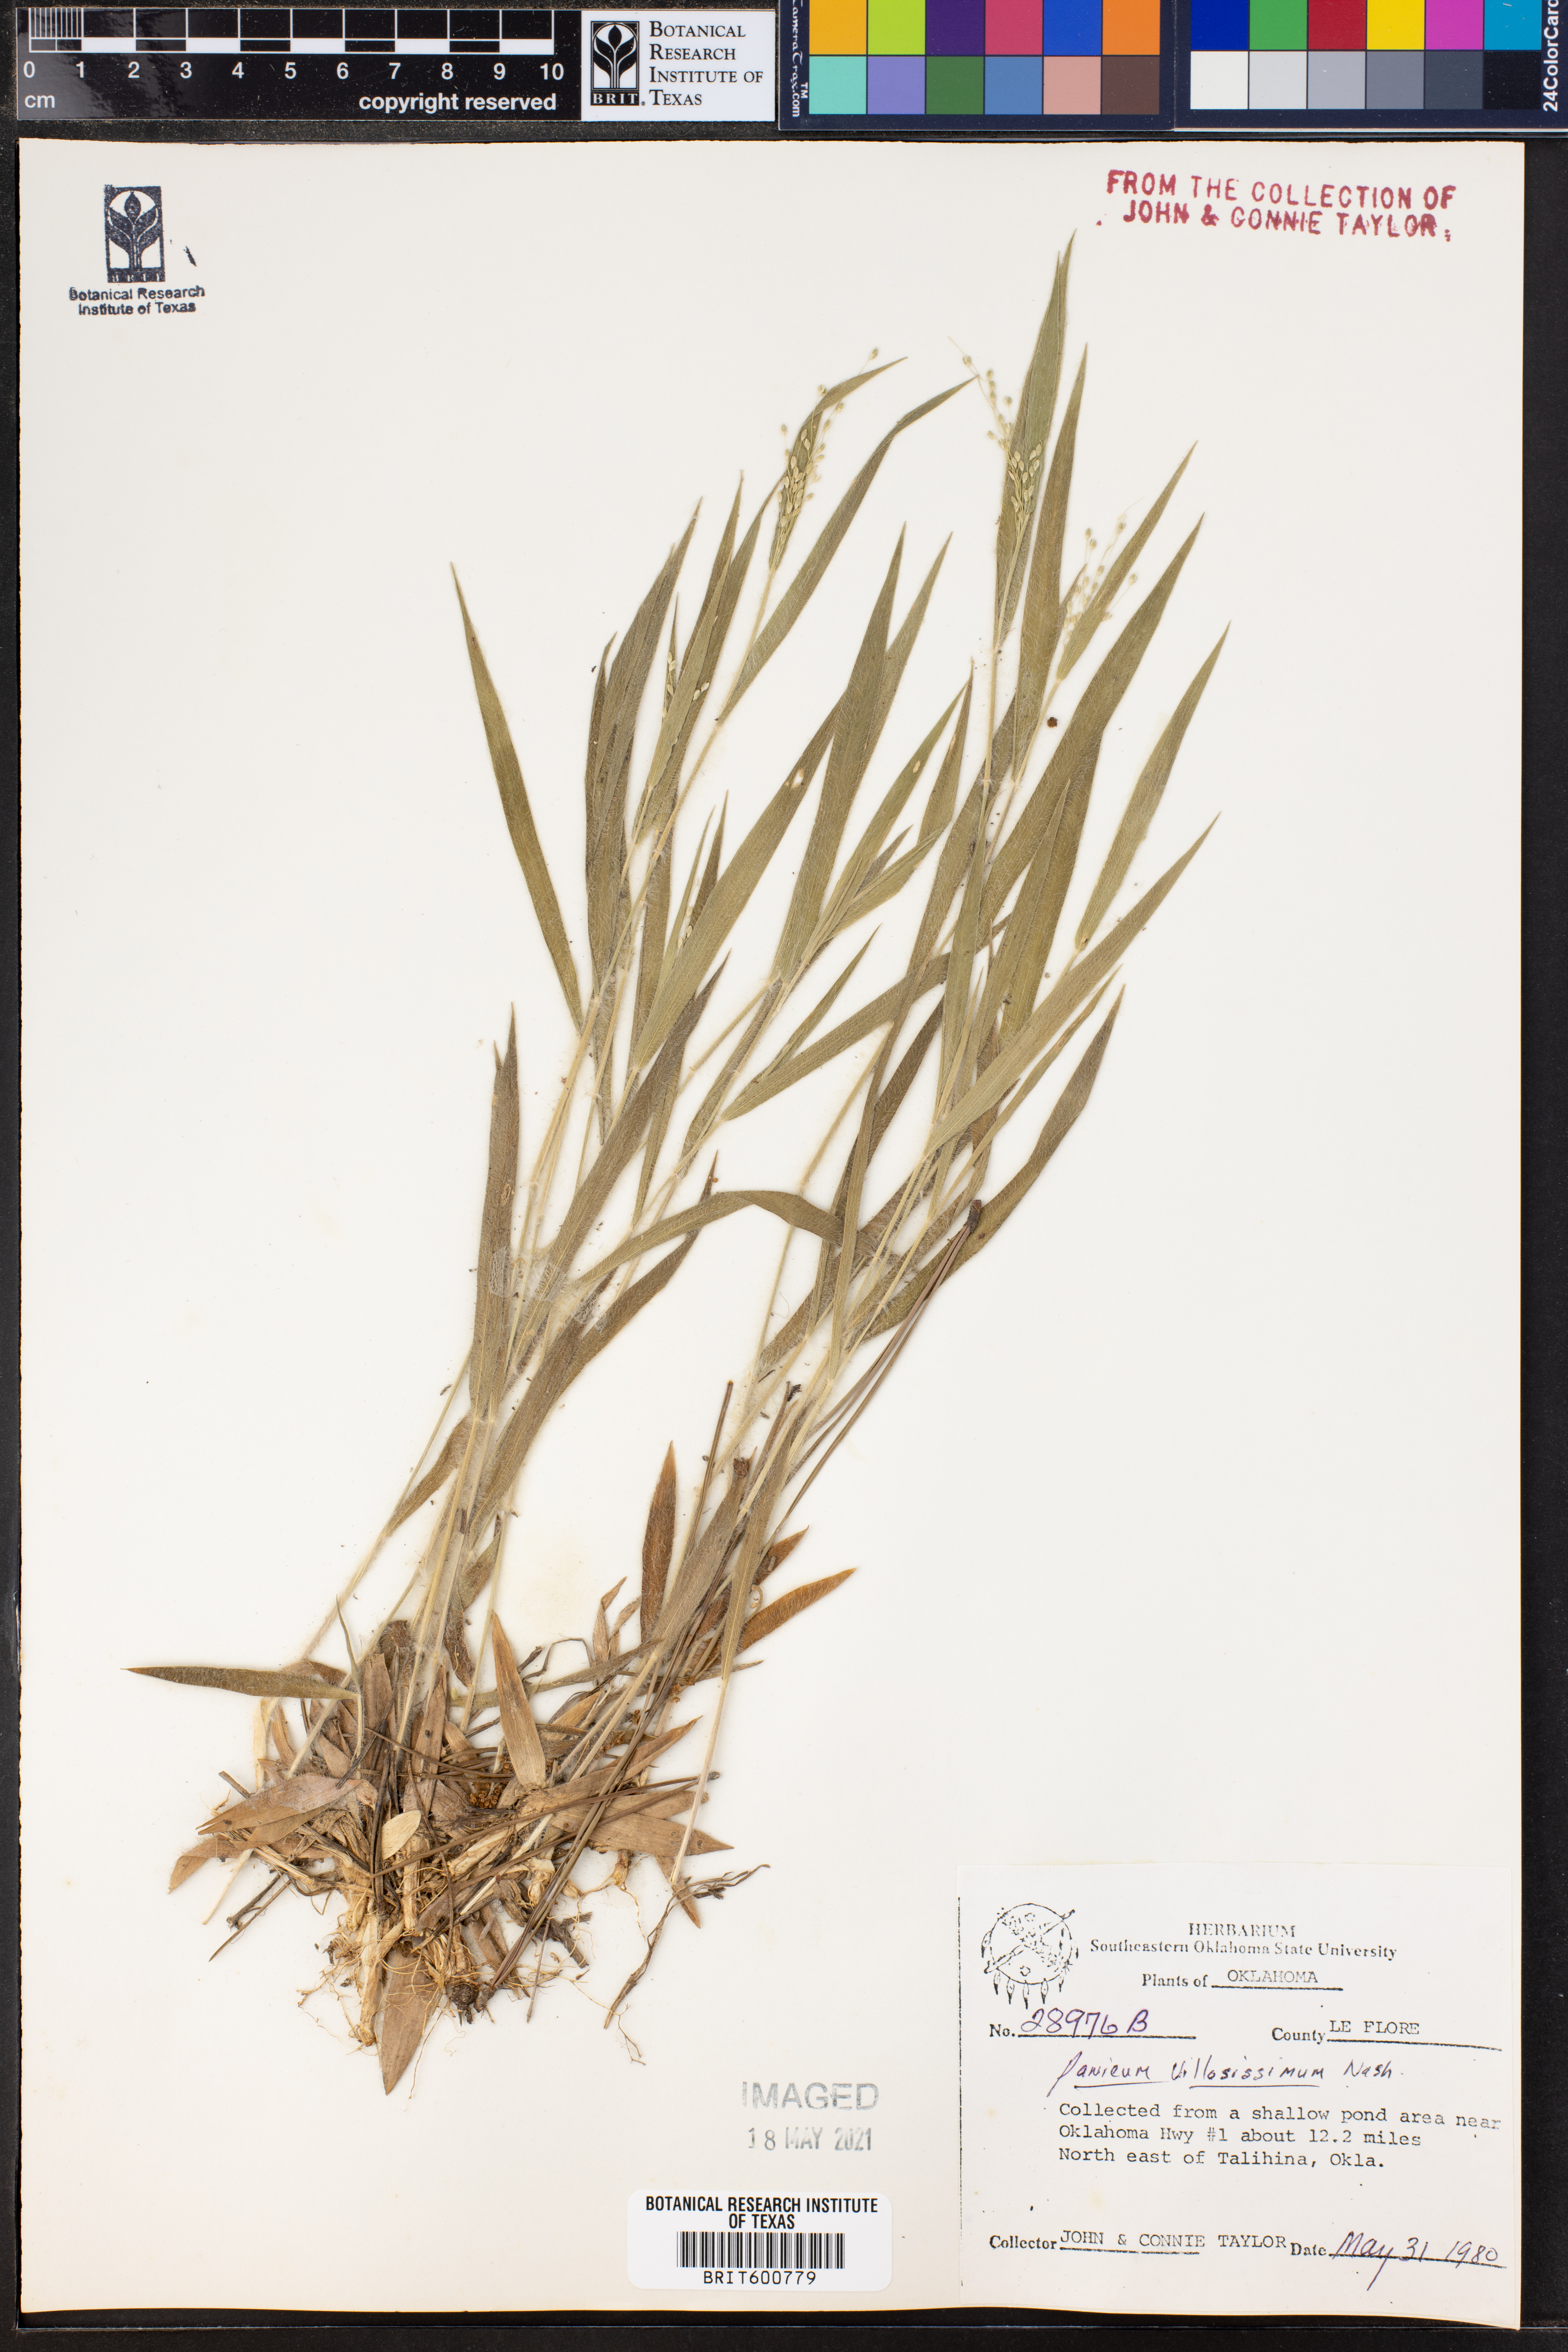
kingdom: Plantae
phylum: Tracheophyta
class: Liliopsida
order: Poales
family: Poaceae
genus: Dichanthelium
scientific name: Dichanthelium villosissimum
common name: White-haired panicgrass
